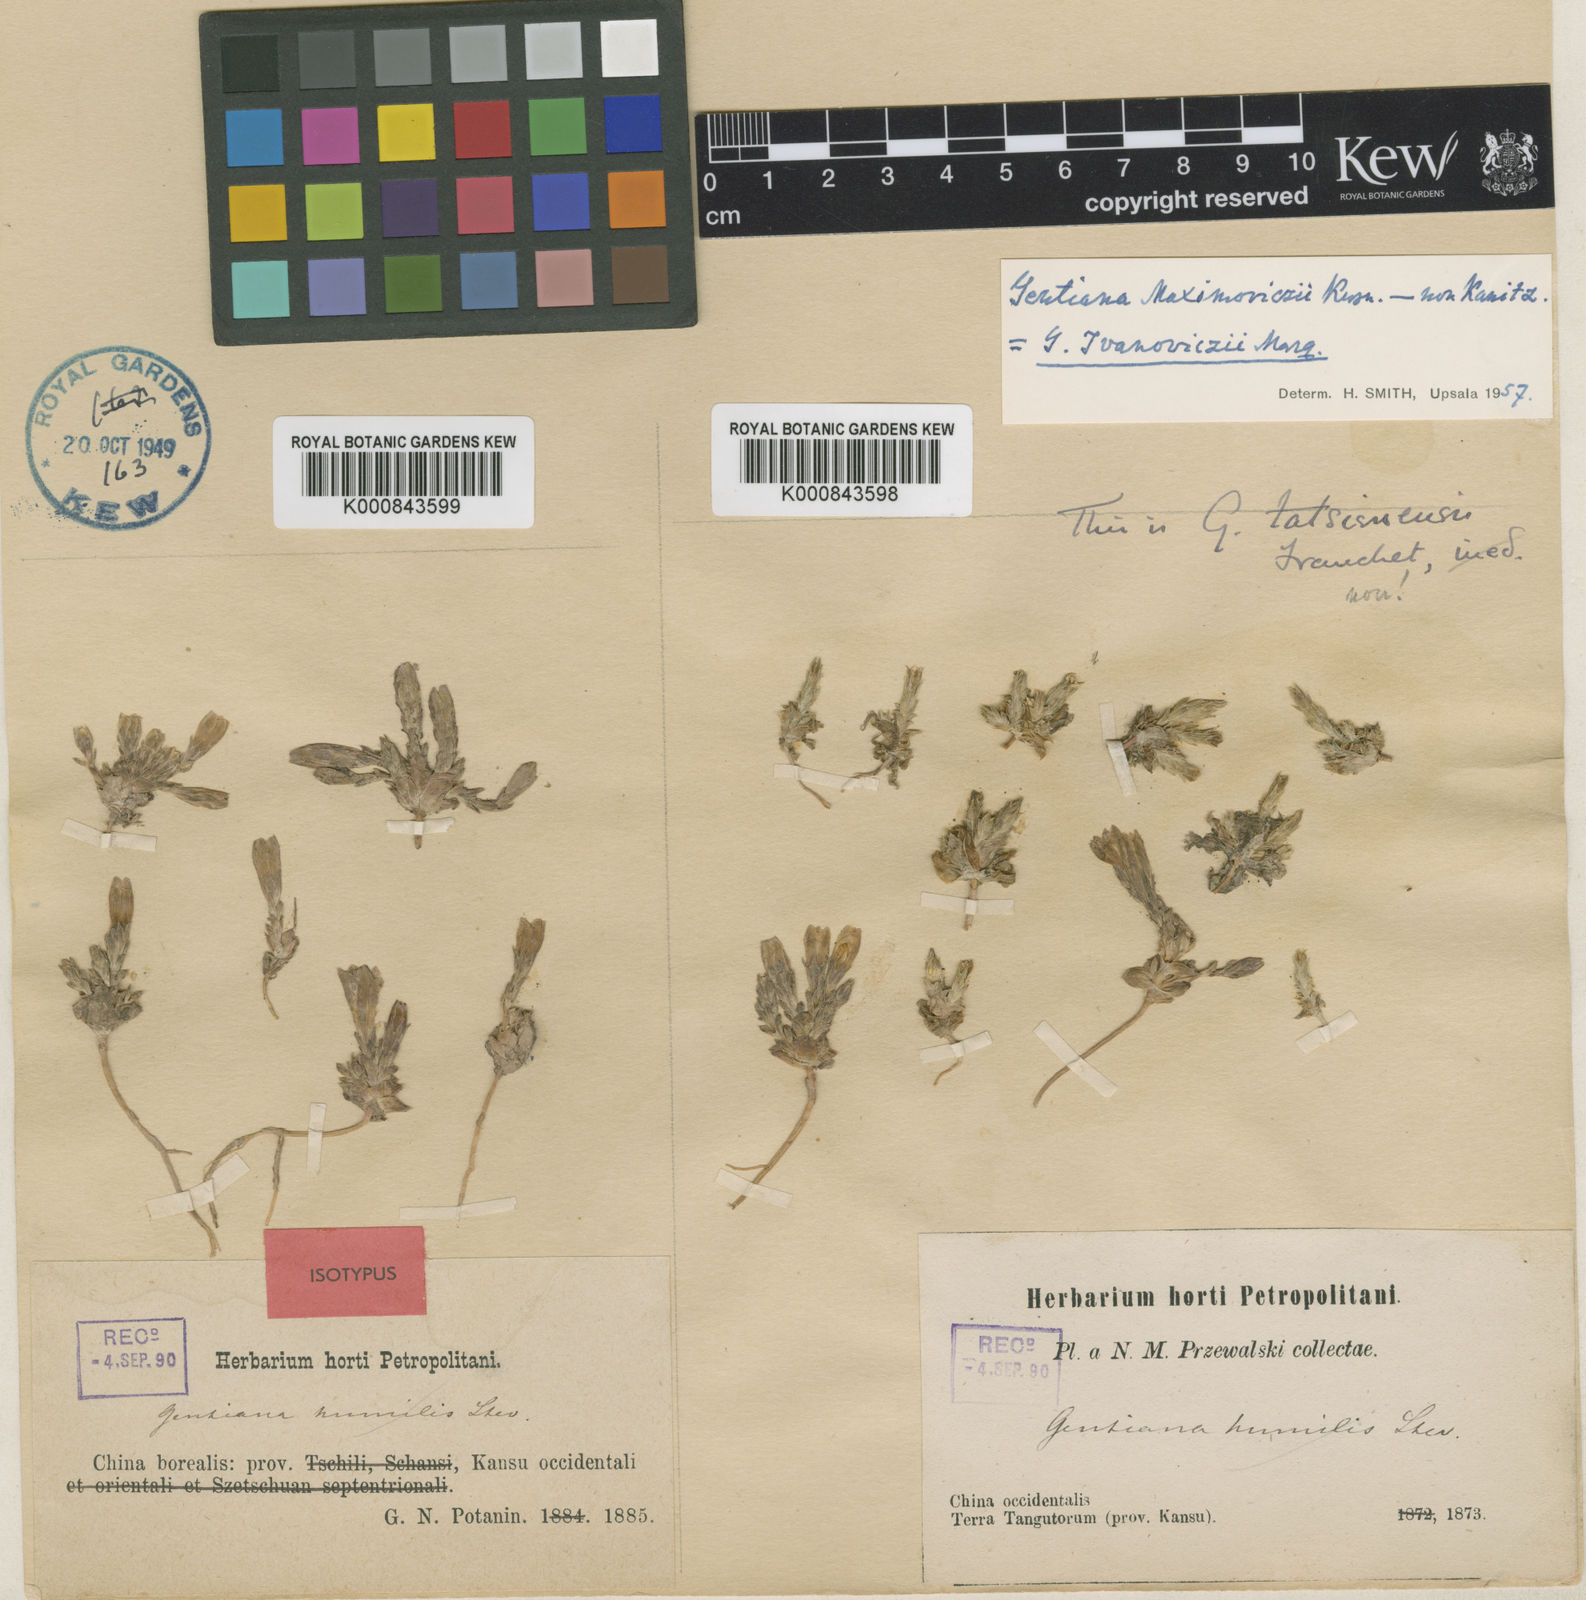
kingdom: Plantae
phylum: Tracheophyta
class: Magnoliopsida
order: Gentianales
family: Gentianaceae
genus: Gentiana
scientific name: Gentiana
